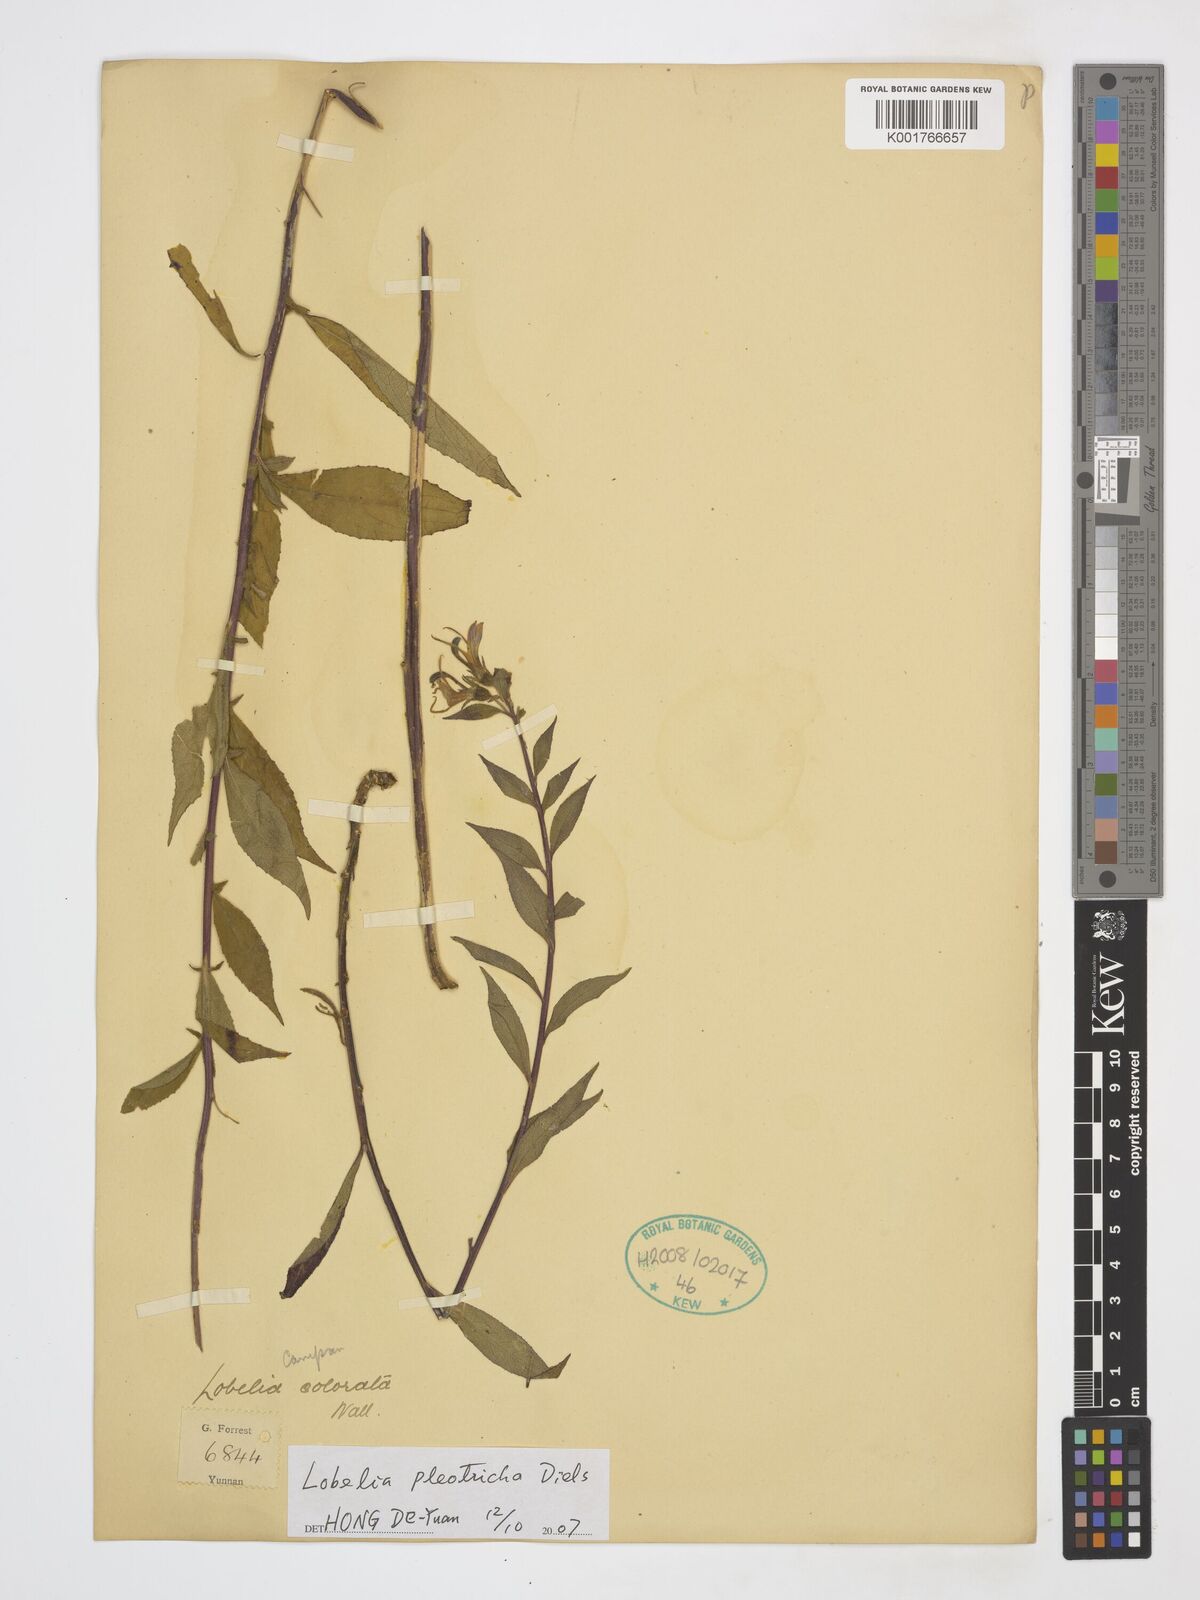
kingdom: Plantae
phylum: Tracheophyta
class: Magnoliopsida
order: Asterales
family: Campanulaceae
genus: Lobelia
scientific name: Lobelia pleotricha
